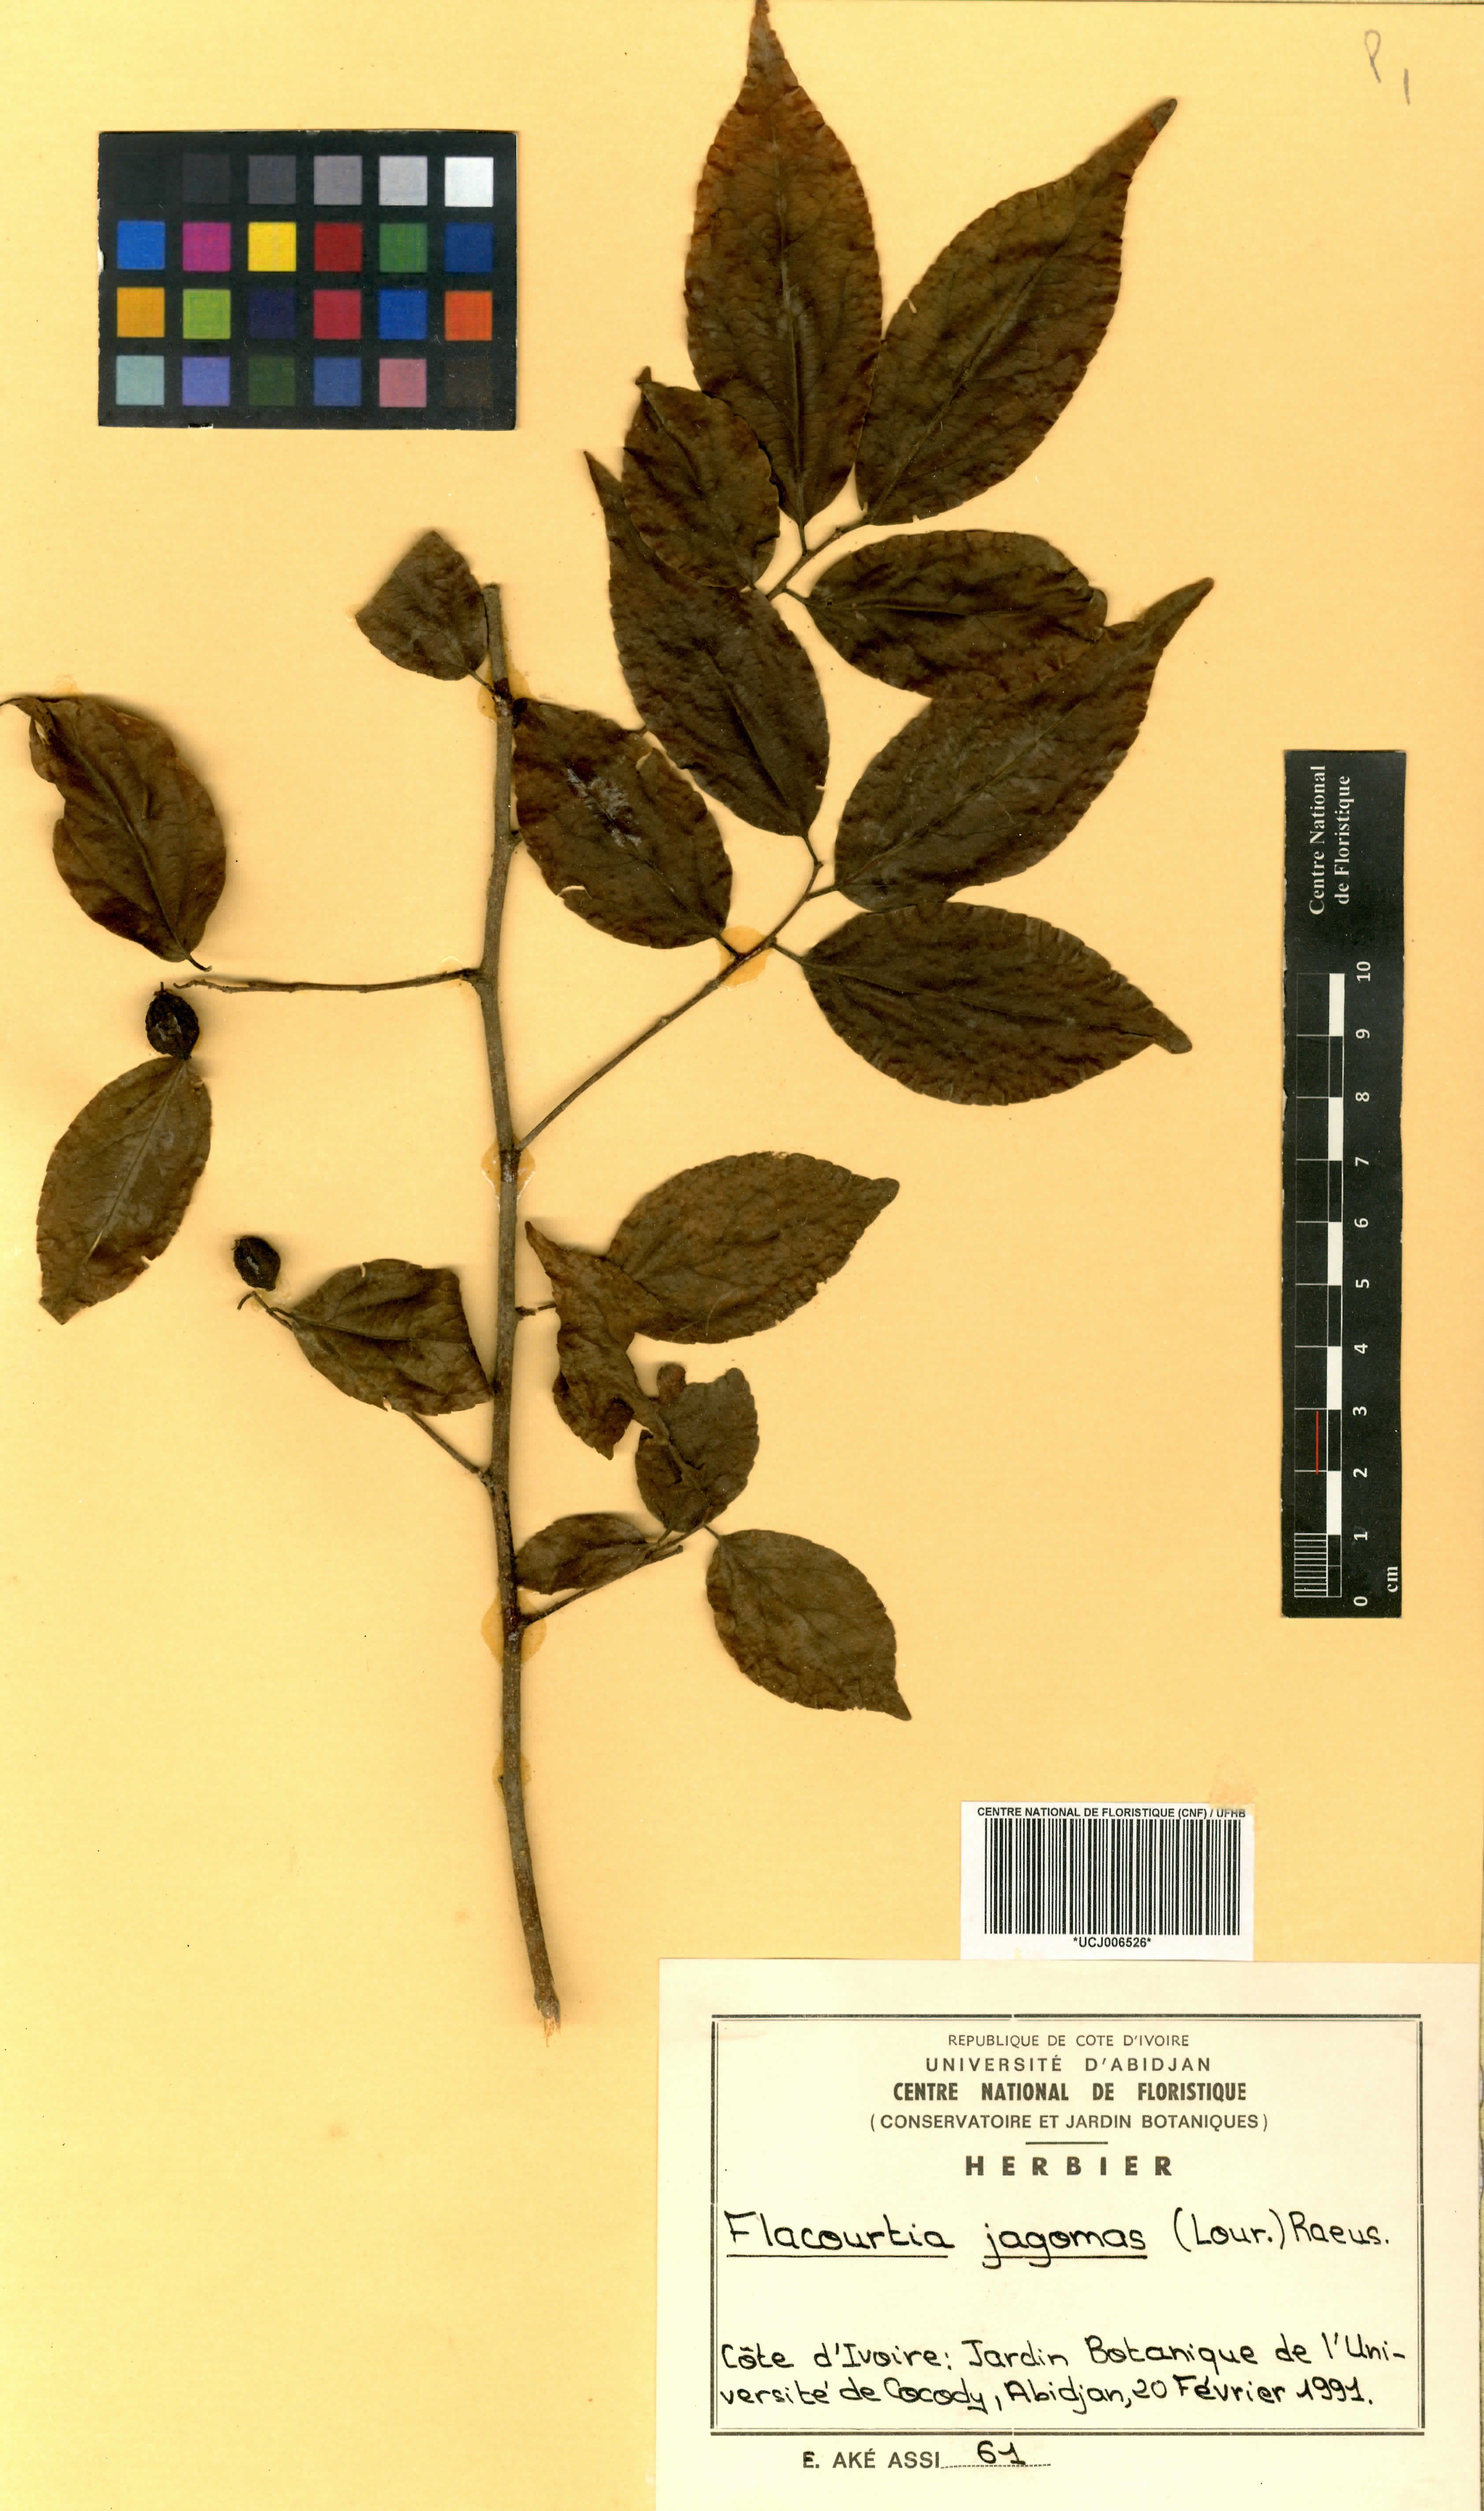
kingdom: Plantae
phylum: Tracheophyta
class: Magnoliopsida
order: Malpighiales
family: Salicaceae
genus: Flacourtia
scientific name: Flacourtia jangomas
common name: Indian-plum
